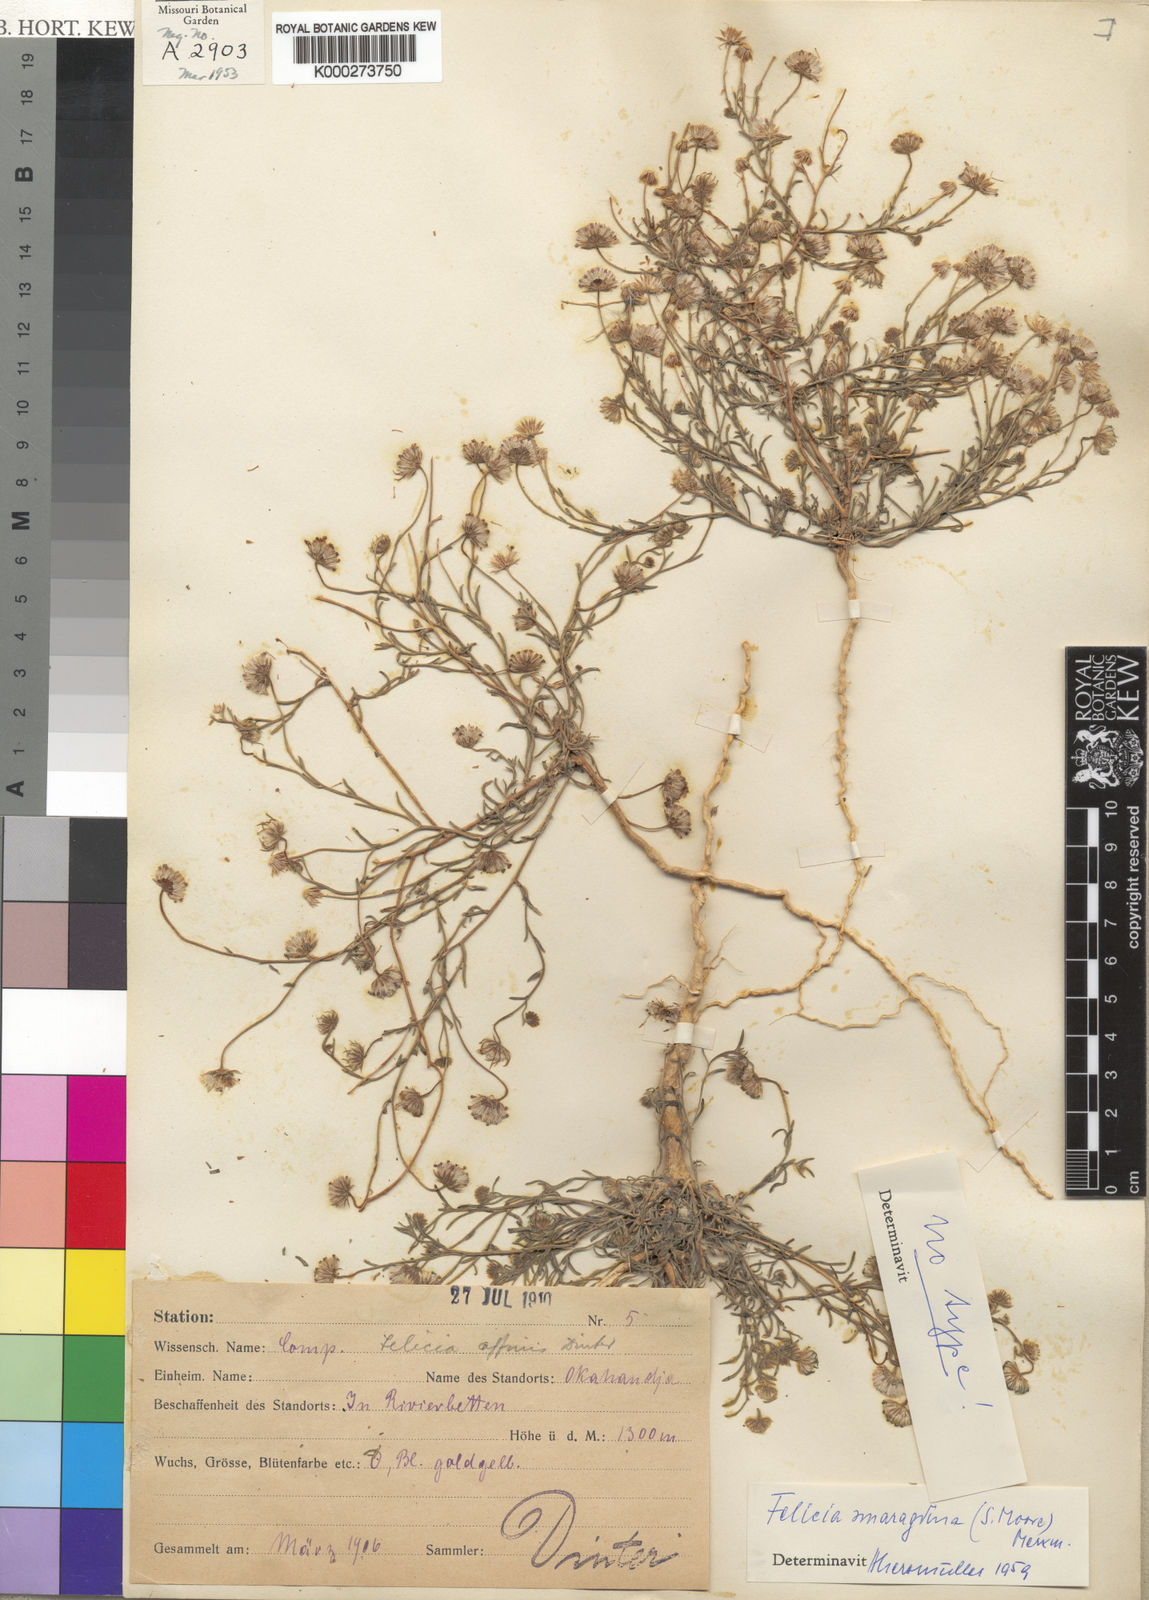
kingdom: Plantae
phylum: Tracheophyta
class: Magnoliopsida
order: Asterales
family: Asteraceae
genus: Felicia
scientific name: Felicia smaragdina
